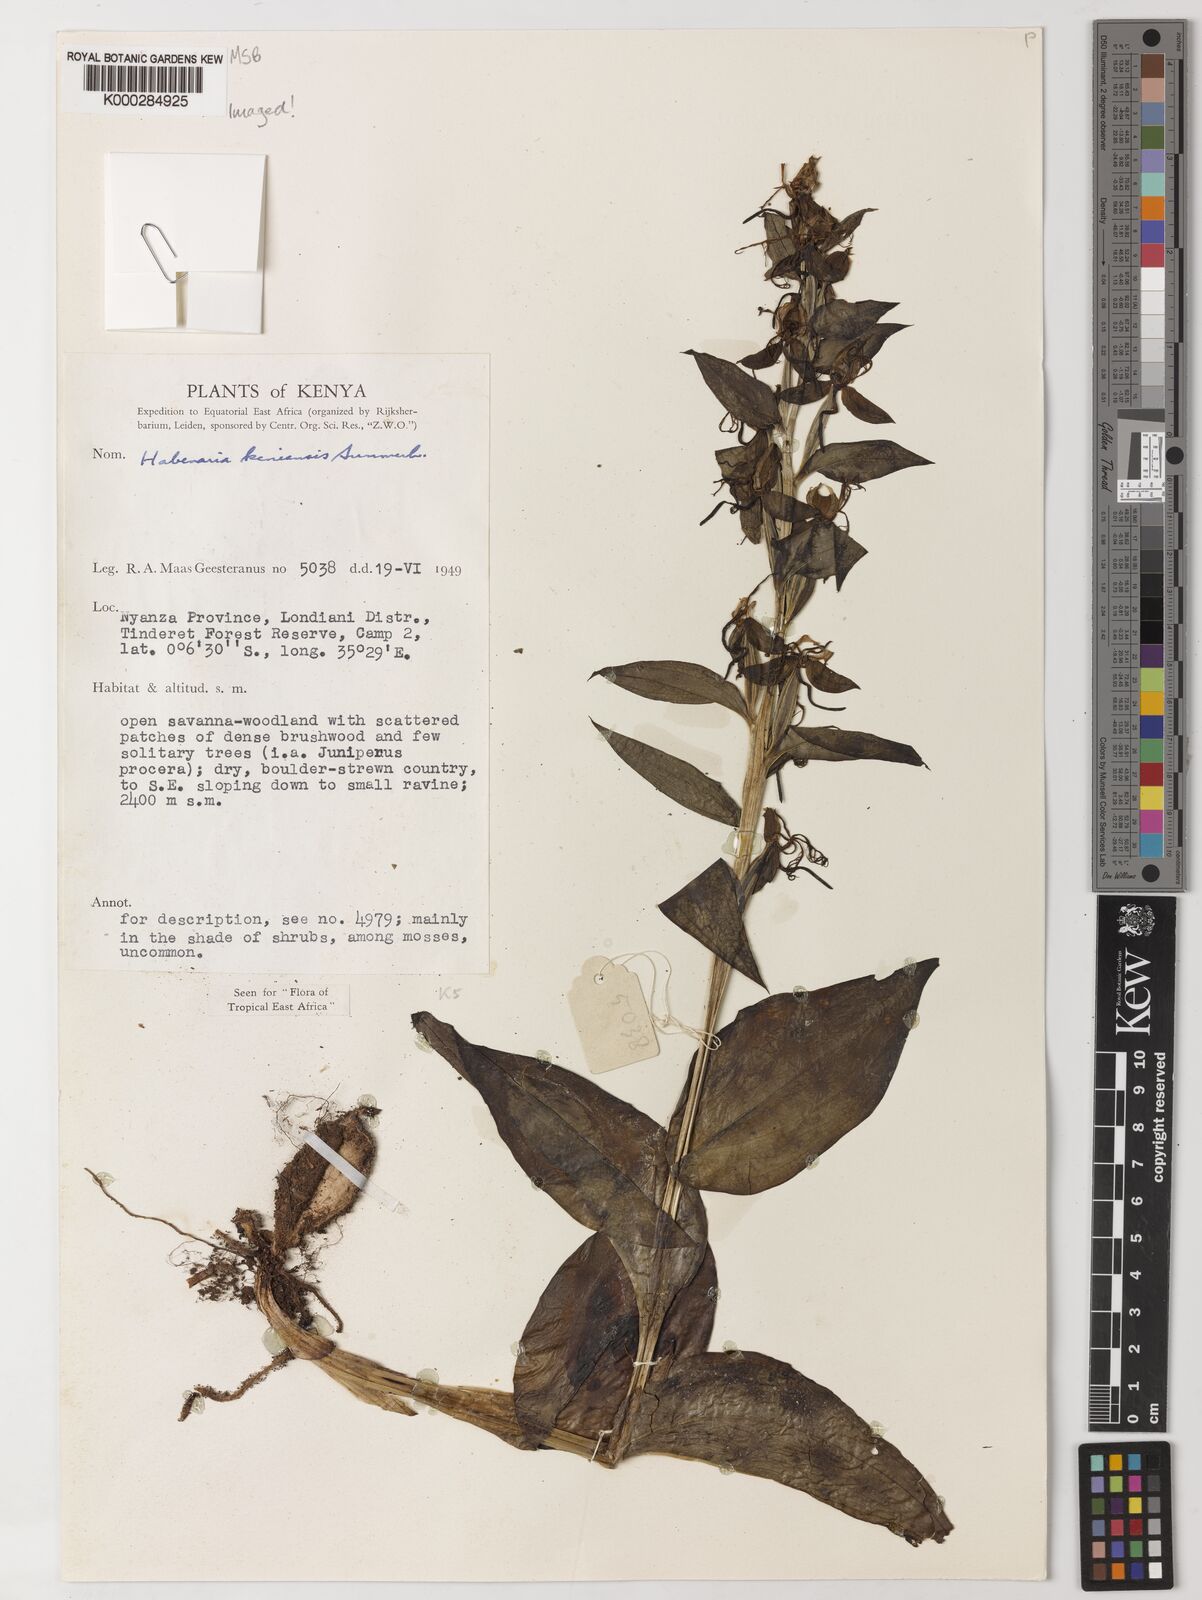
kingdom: Plantae
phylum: Tracheophyta
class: Liliopsida
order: Asparagales
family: Orchidaceae
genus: Habenaria
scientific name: Habenaria keniensis
